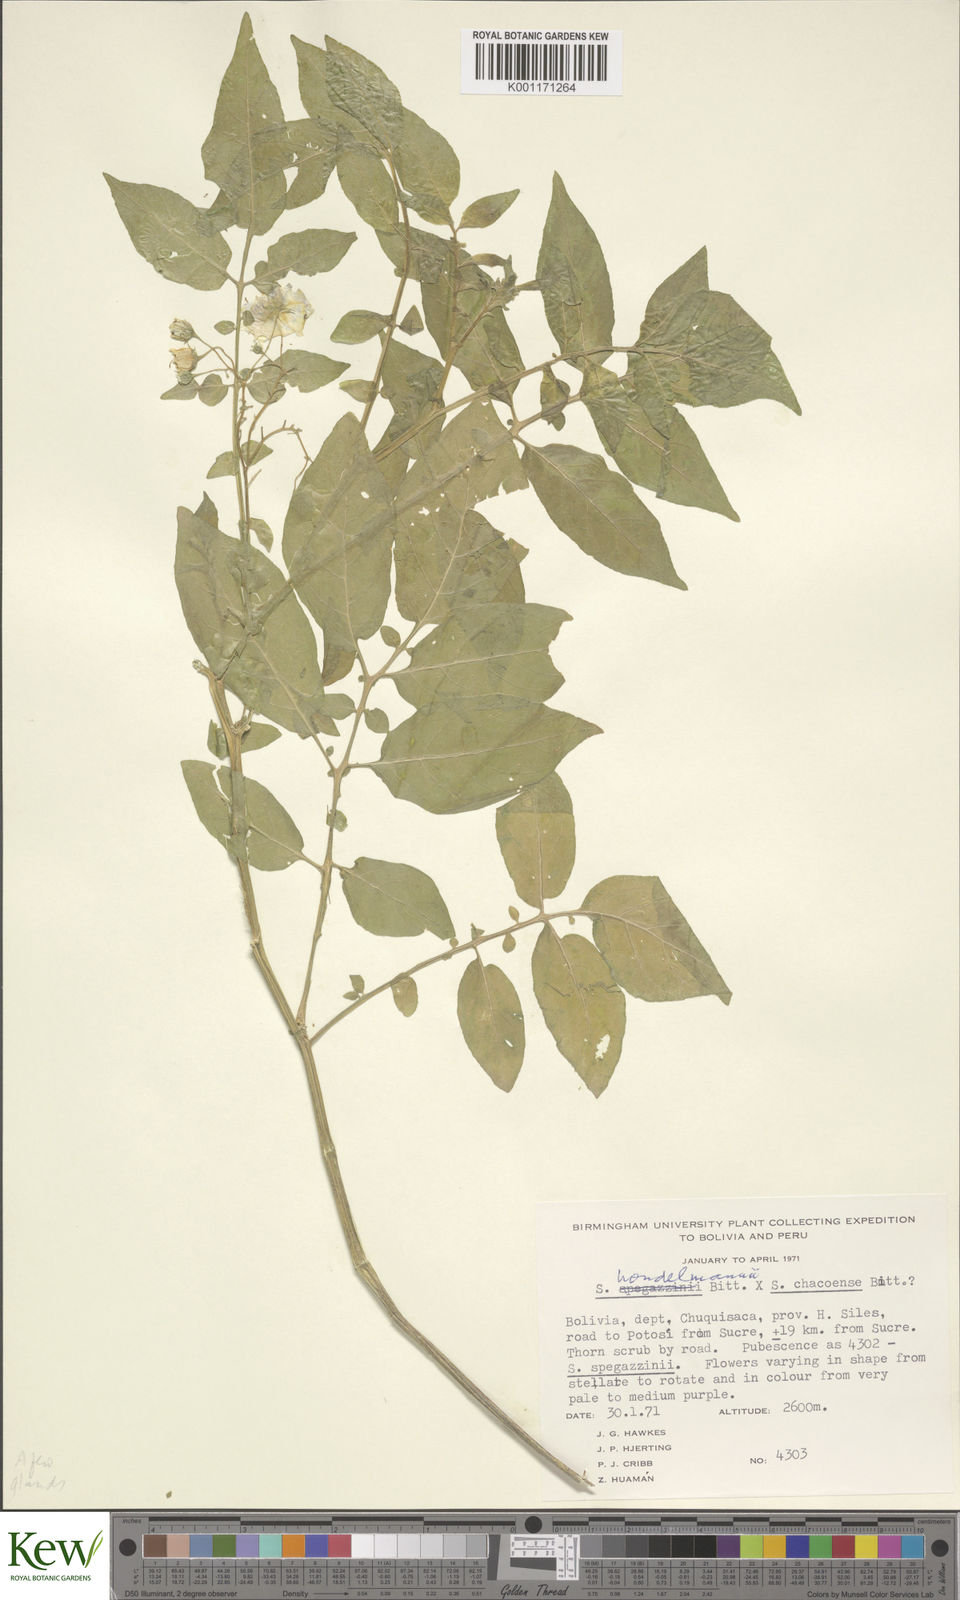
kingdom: Plantae
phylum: Tracheophyta
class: Magnoliopsida
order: Solanales
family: Solanaceae
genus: Solanum
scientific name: Solanum brevicaule
